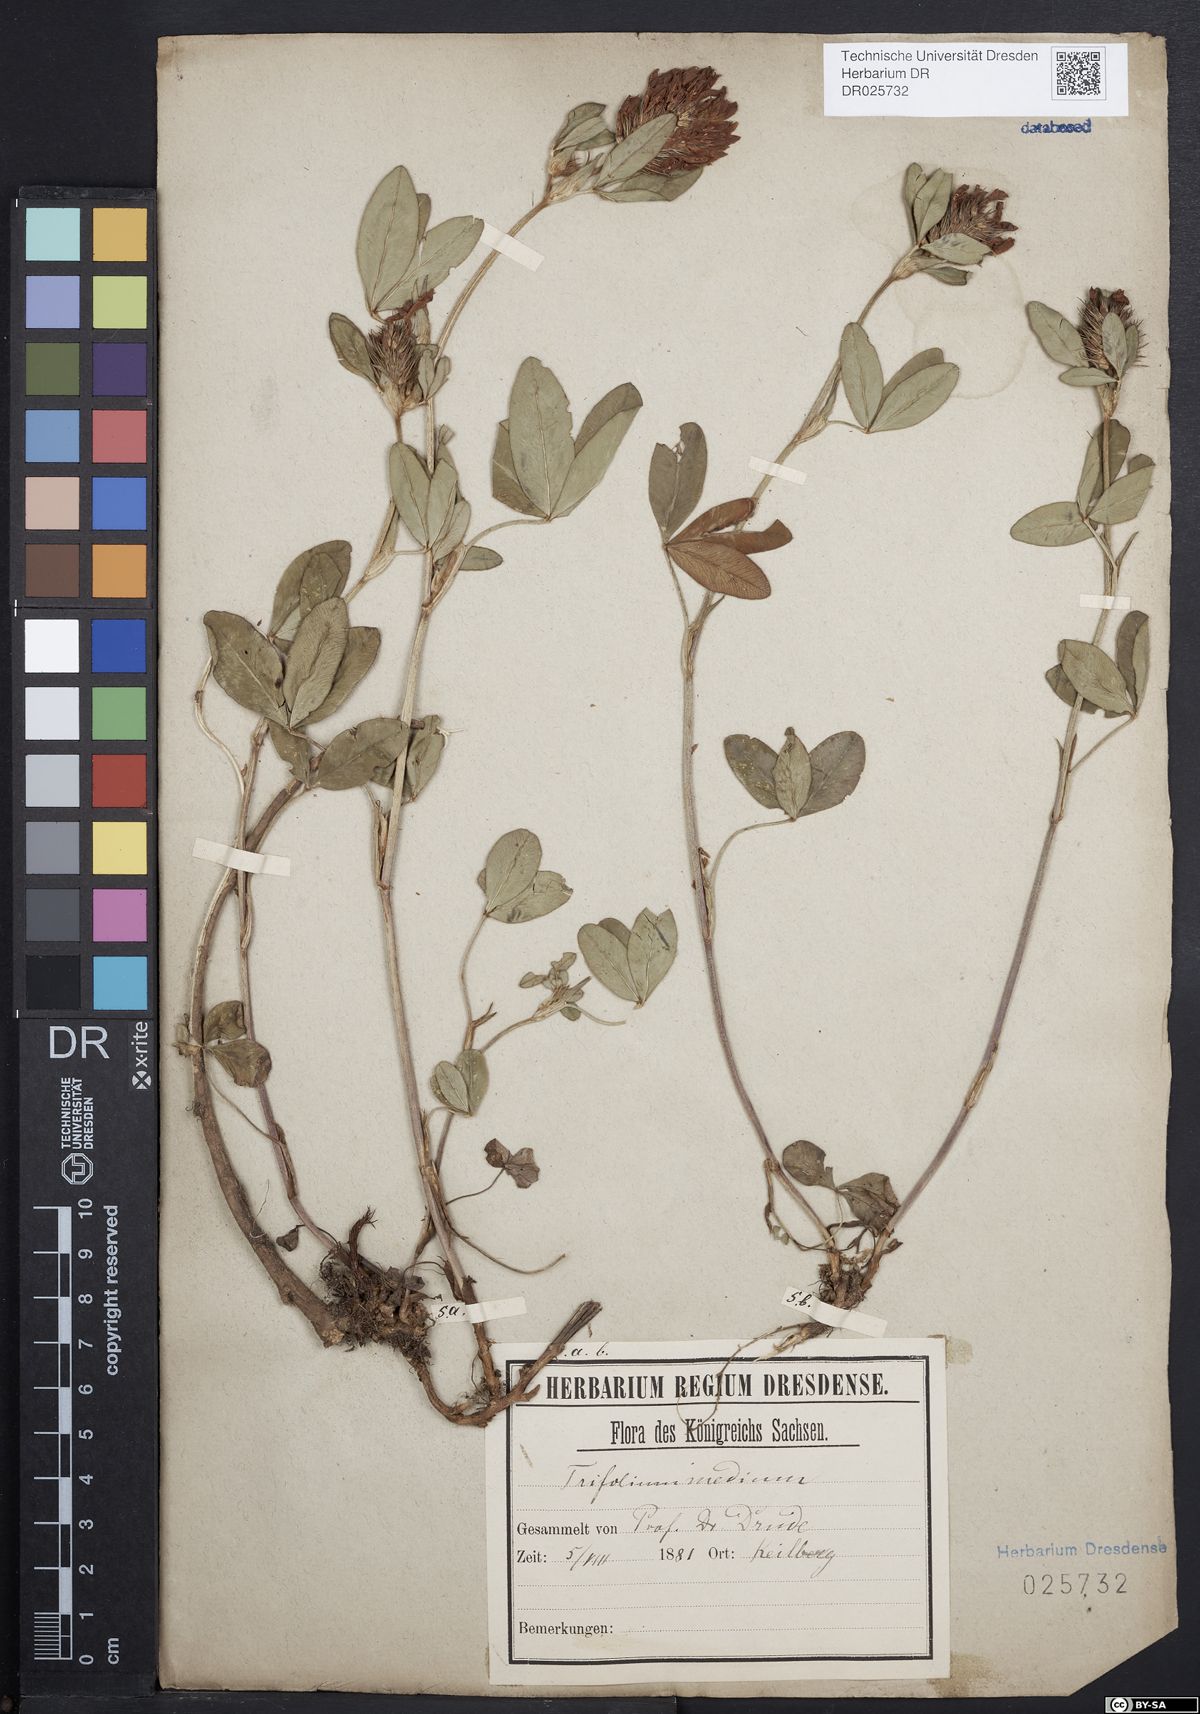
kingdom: Plantae
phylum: Tracheophyta
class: Magnoliopsida
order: Fabales
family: Fabaceae
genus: Trifolium
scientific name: Trifolium medium
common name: Zigzag clover
